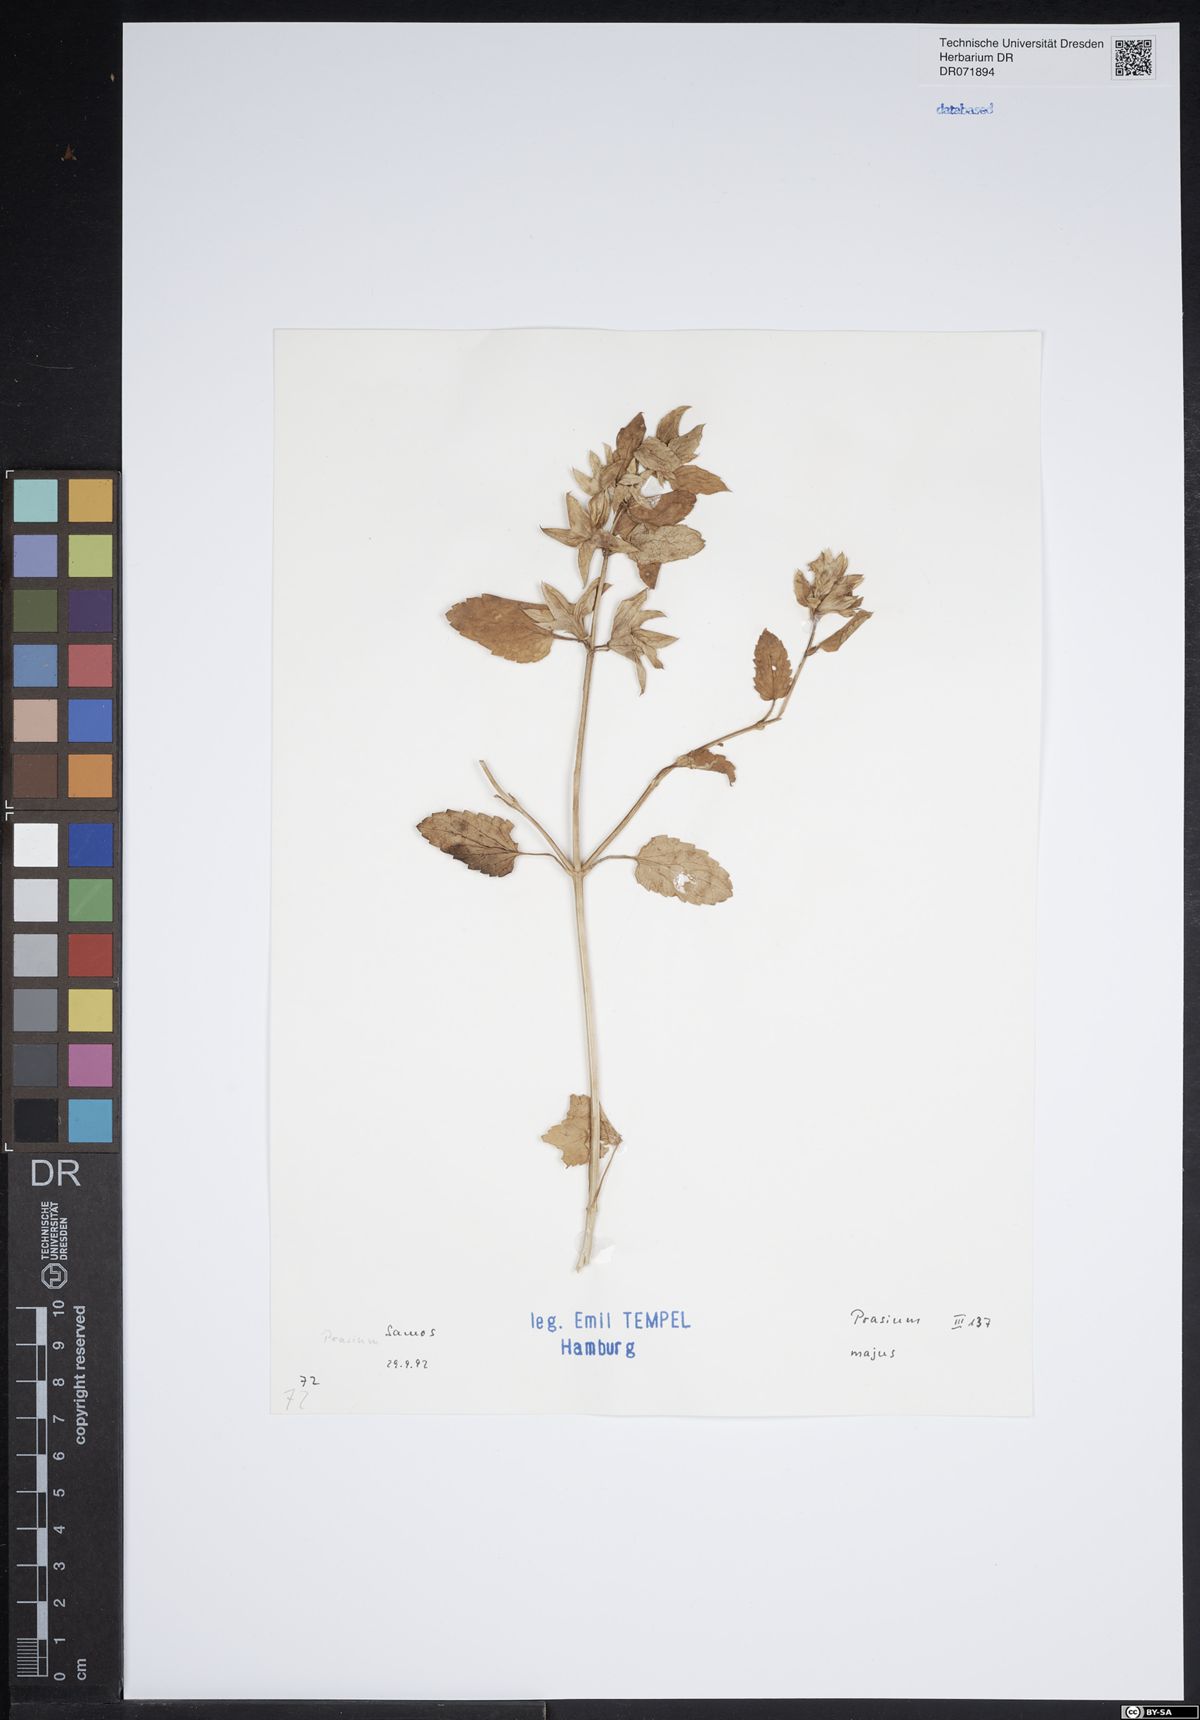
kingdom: Plantae
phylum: Tracheophyta
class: Magnoliopsida
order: Lamiales
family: Lamiaceae
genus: Prasium
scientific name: Prasium majus
